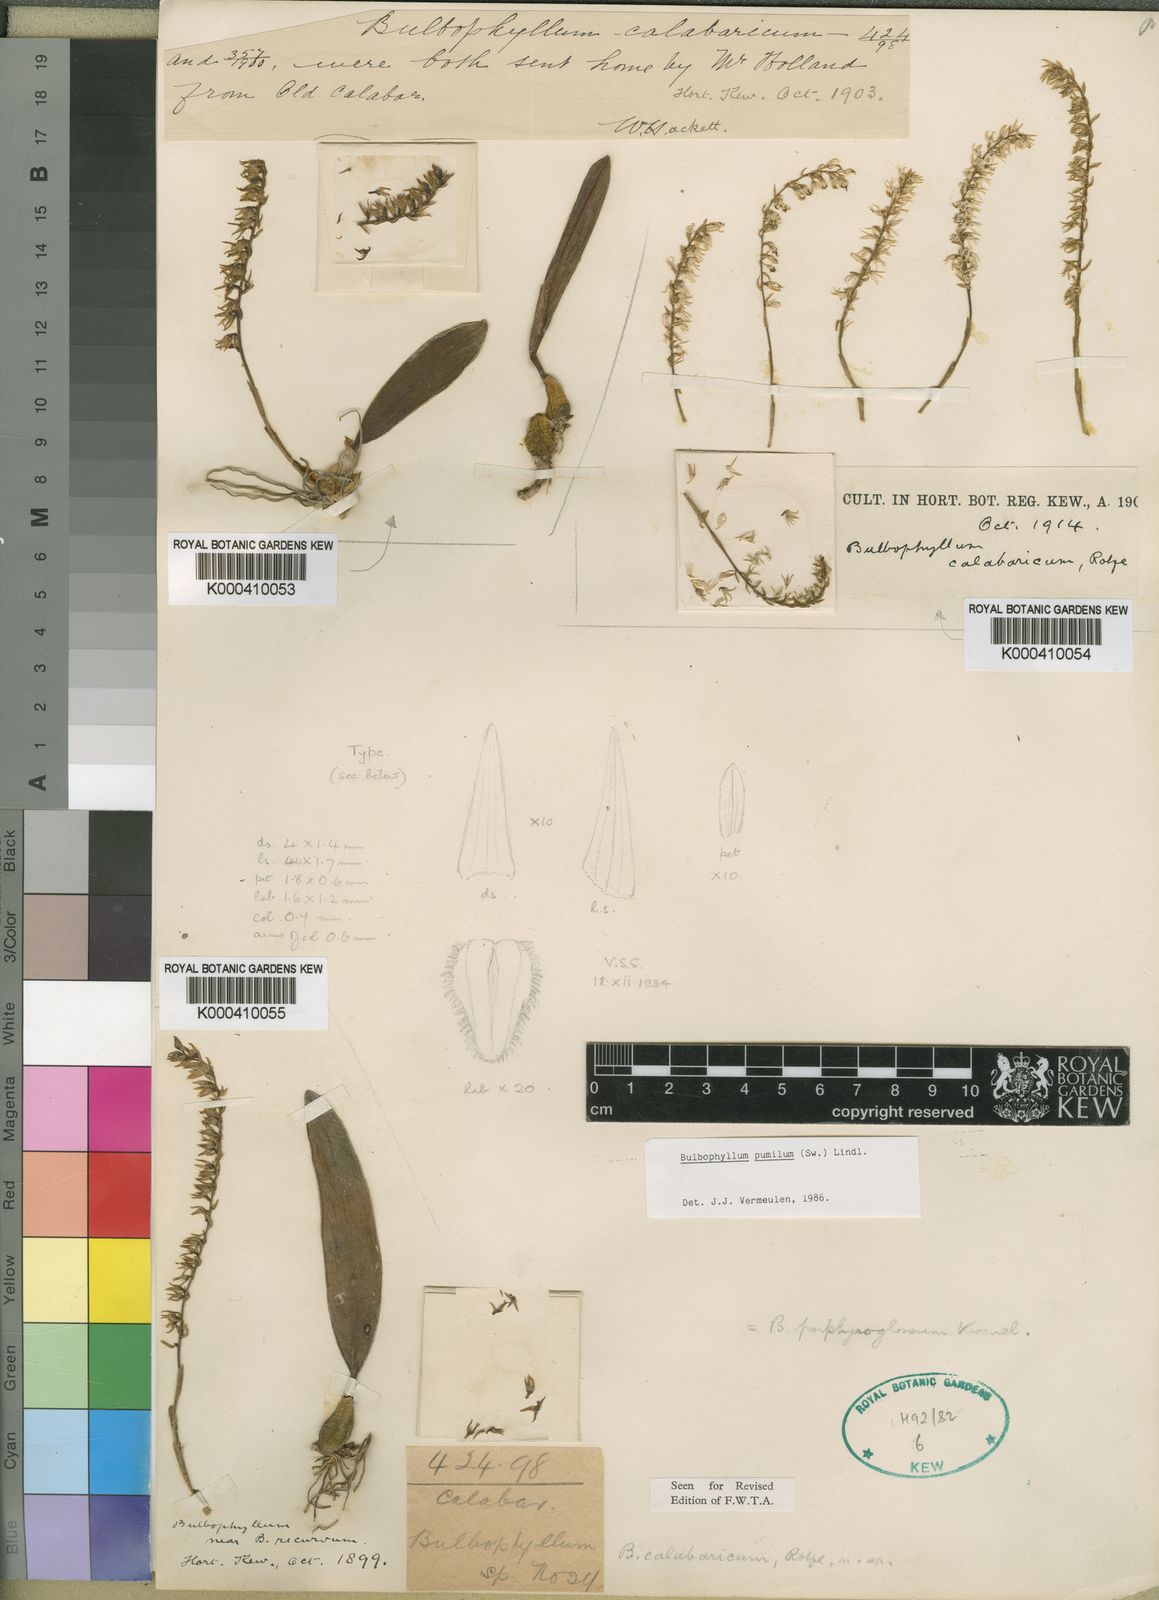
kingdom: Plantae
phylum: Tracheophyta
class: Liliopsida
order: Asparagales
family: Orchidaceae
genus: Bulbophyllum
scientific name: Bulbophyllum pumilum
